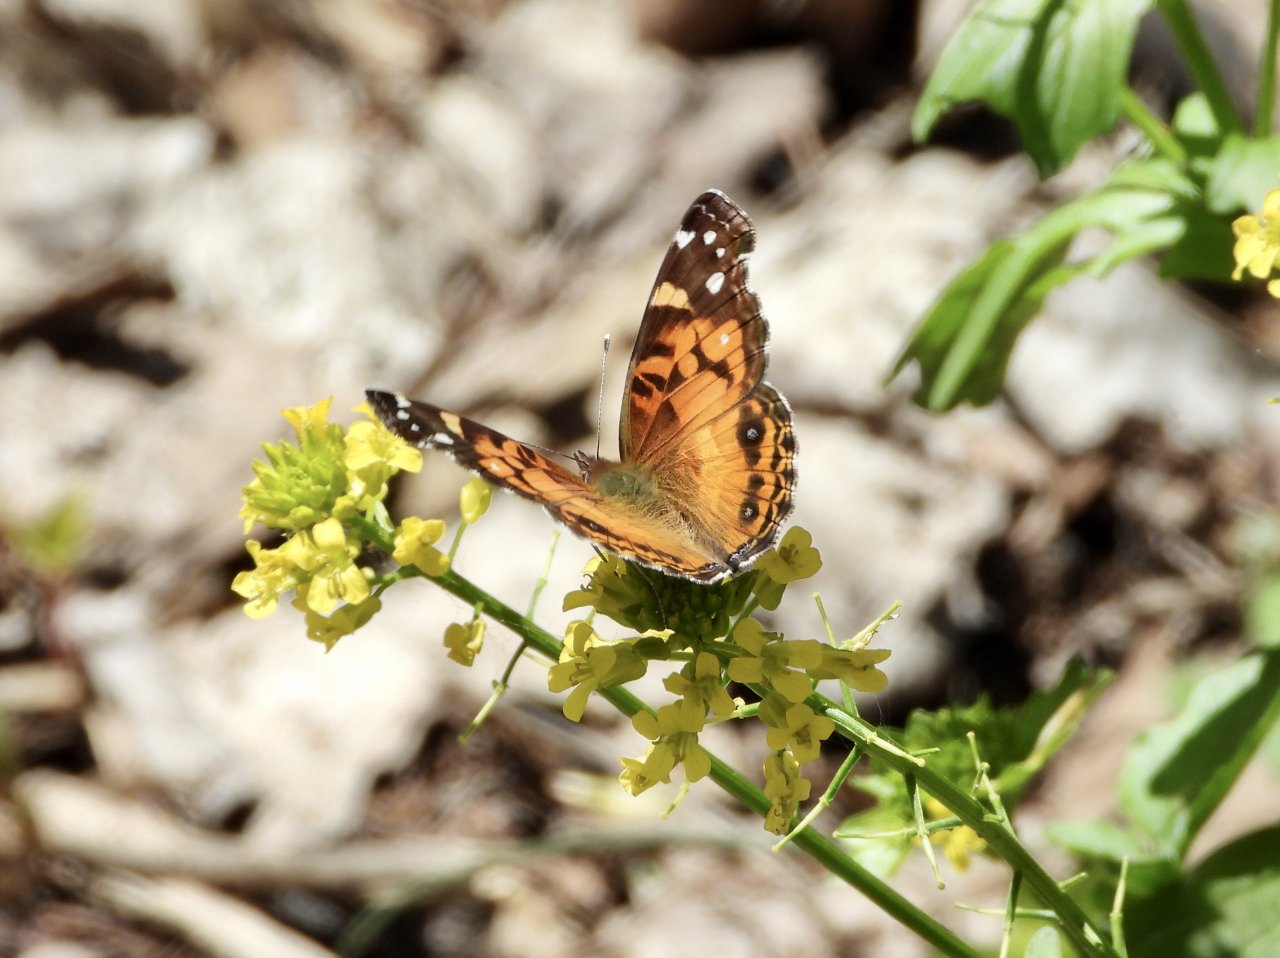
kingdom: Animalia
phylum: Arthropoda
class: Insecta
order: Lepidoptera
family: Nymphalidae
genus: Vanessa
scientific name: Vanessa virginiensis
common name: American Lady
